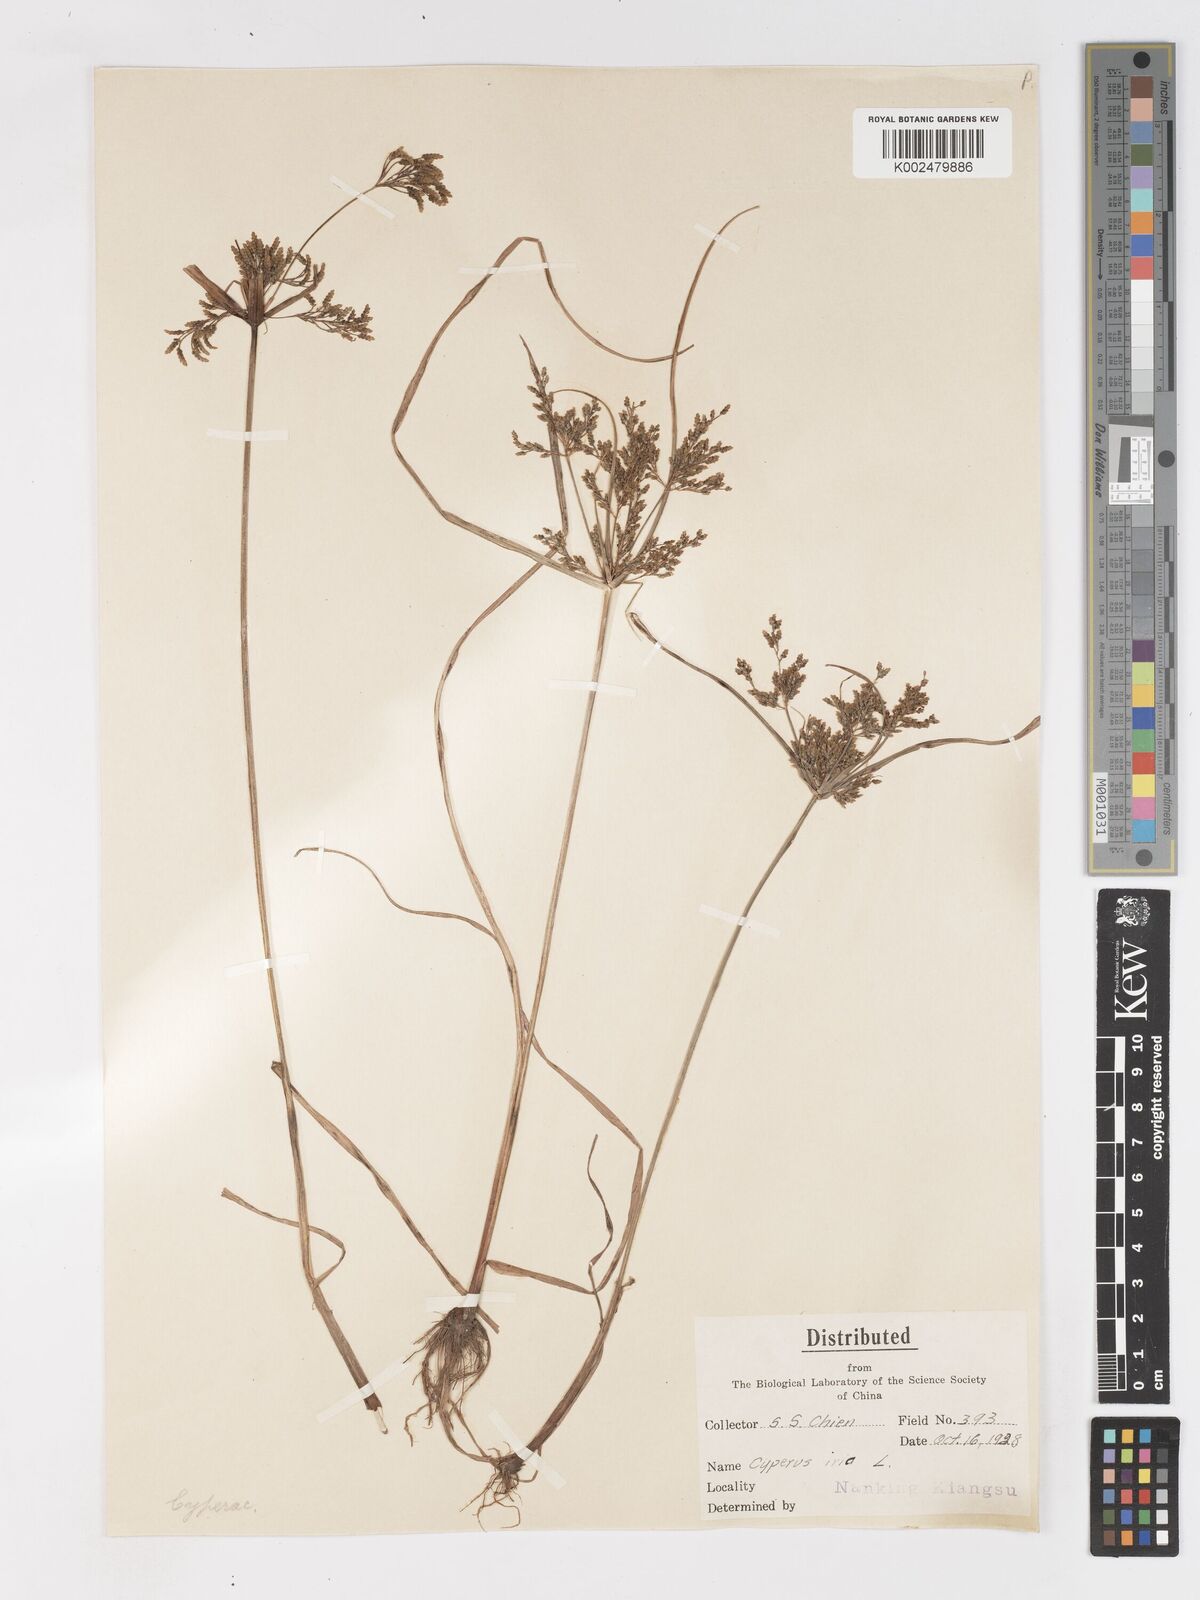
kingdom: Plantae
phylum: Tracheophyta
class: Liliopsida
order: Poales
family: Cyperaceae
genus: Cyperus
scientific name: Cyperus iria
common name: Ricefield flatsedge
